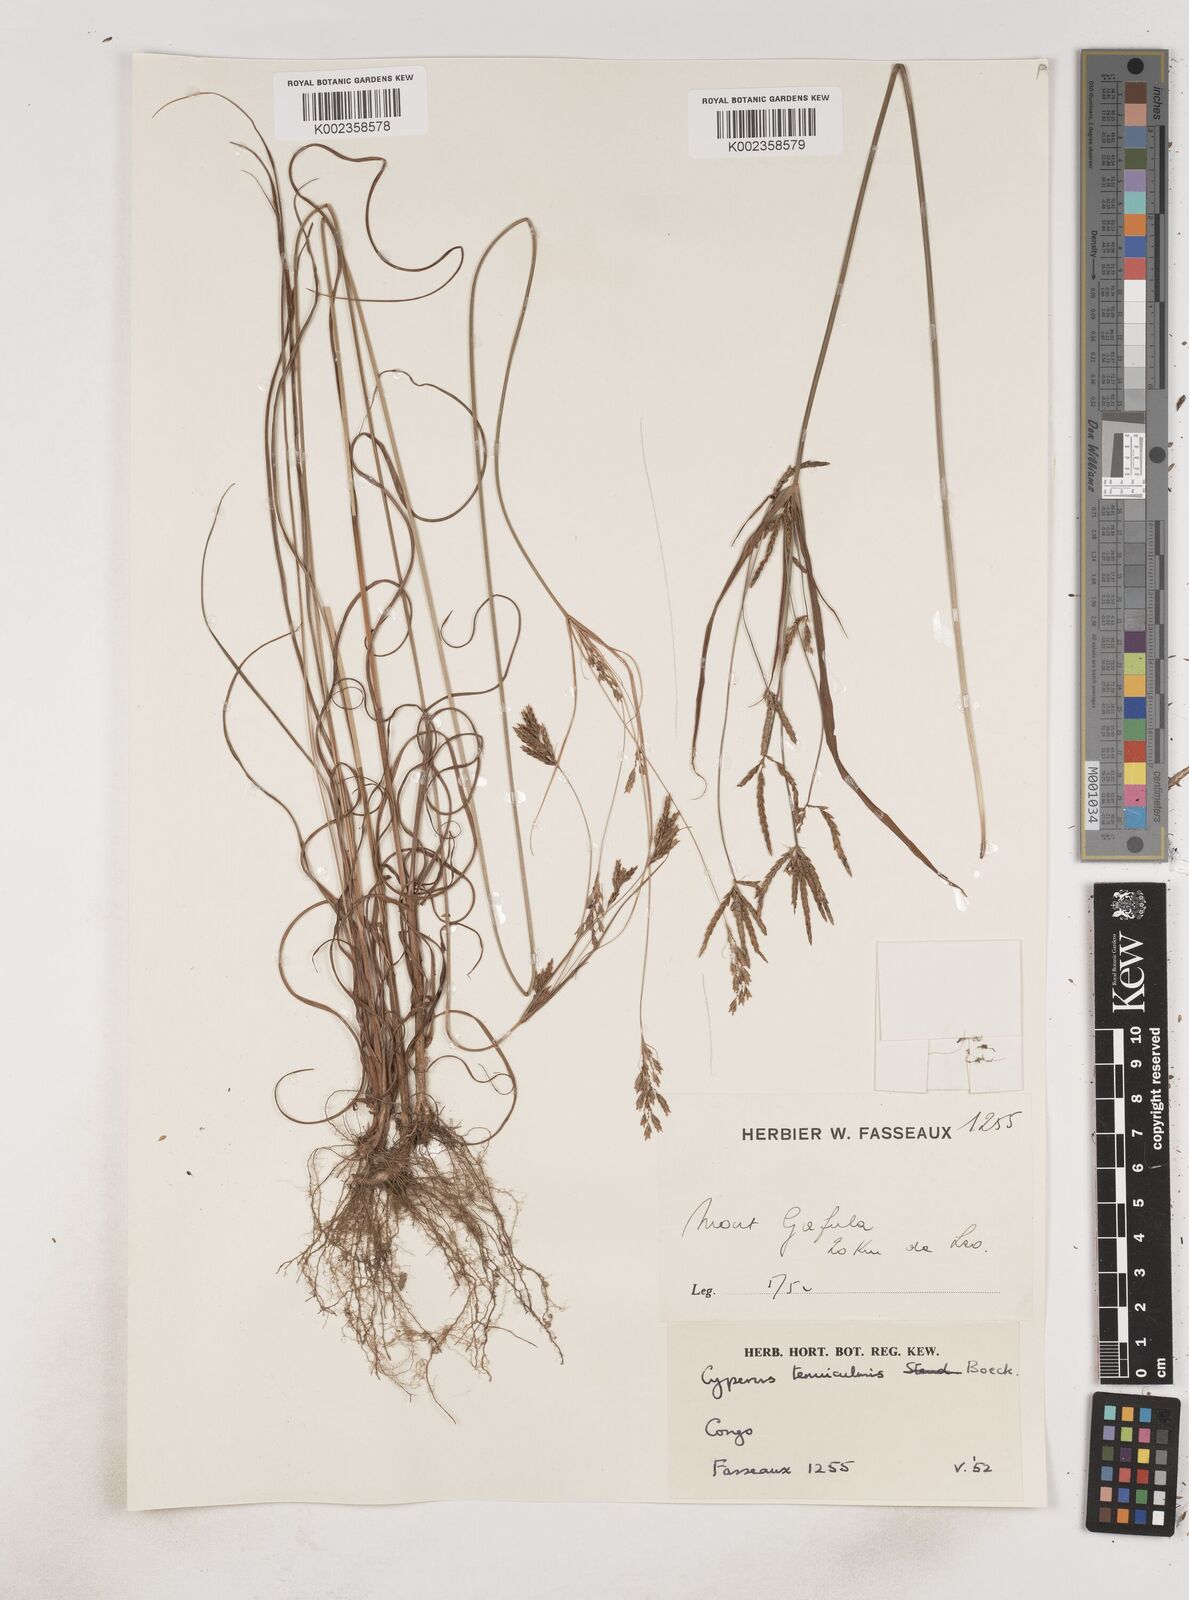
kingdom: Plantae
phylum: Tracheophyta
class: Liliopsida
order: Poales
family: Cyperaceae
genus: Cyperus
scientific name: Cyperus
